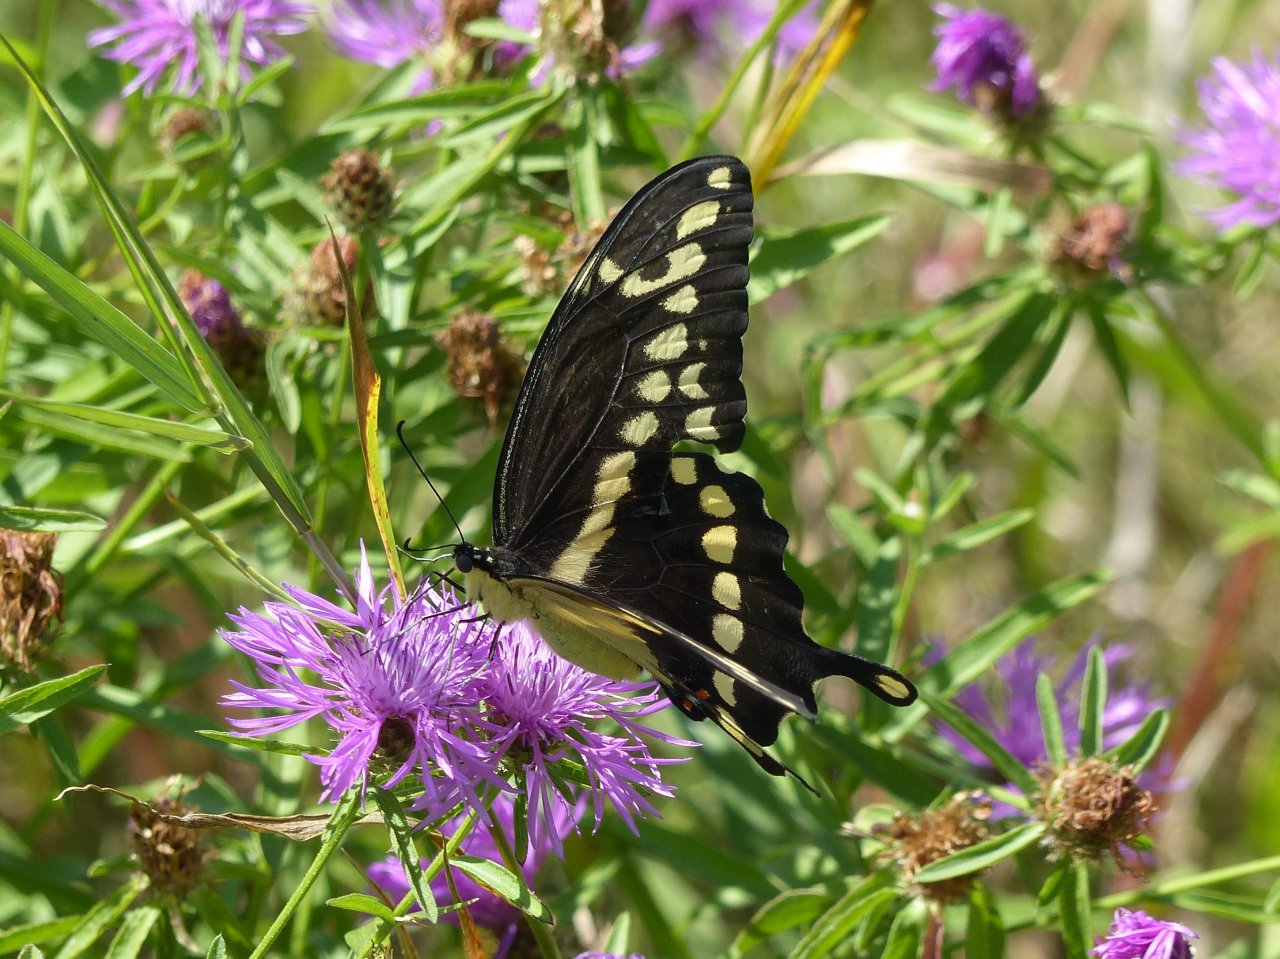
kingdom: Animalia
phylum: Arthropoda
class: Insecta
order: Lepidoptera
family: Papilionidae
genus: Papilio
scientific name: Papilio cresphontes
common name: Eastern Giant Swallowtail
